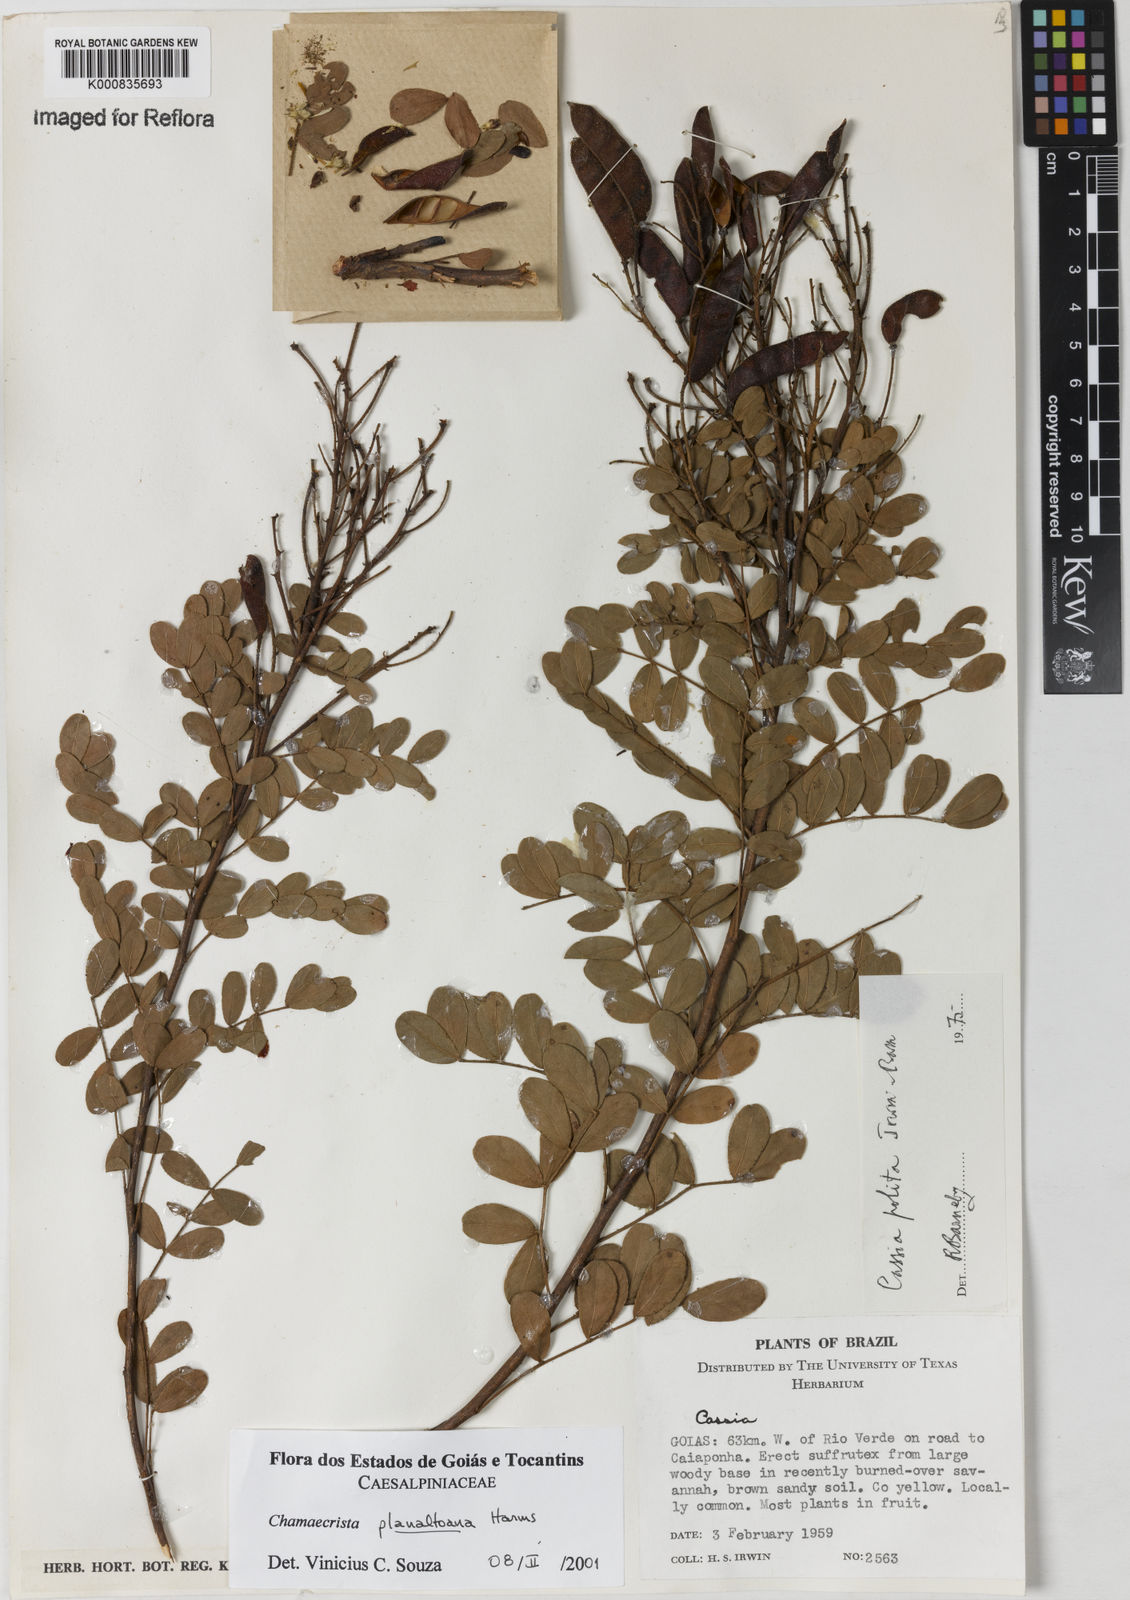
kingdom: Plantae
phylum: Tracheophyta
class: Magnoliopsida
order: Fabales
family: Fabaceae
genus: Chamaecrista
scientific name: Chamaecrista planaltoana
